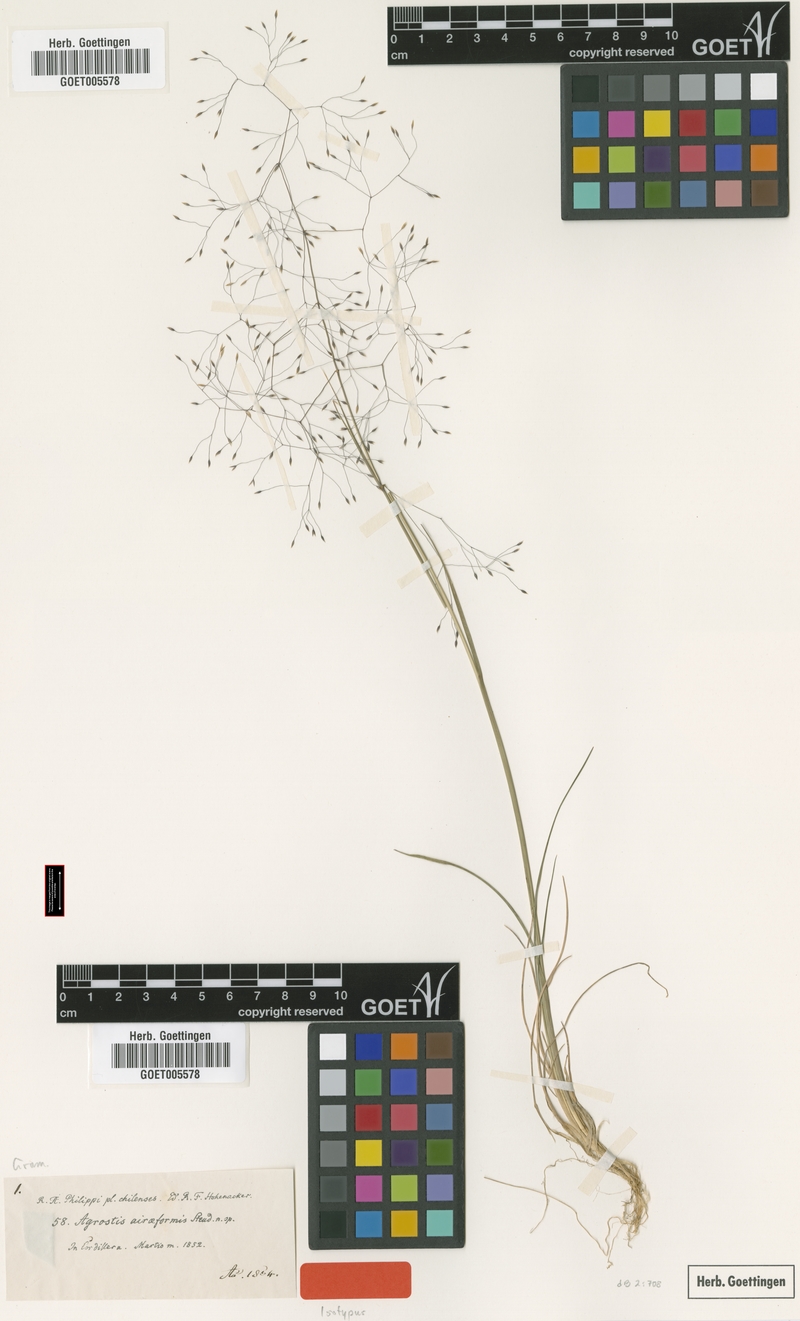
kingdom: Plantae
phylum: Tracheophyta
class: Liliopsida
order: Poales
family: Poaceae
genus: Agrostis
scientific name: Agrostis inconspicua
